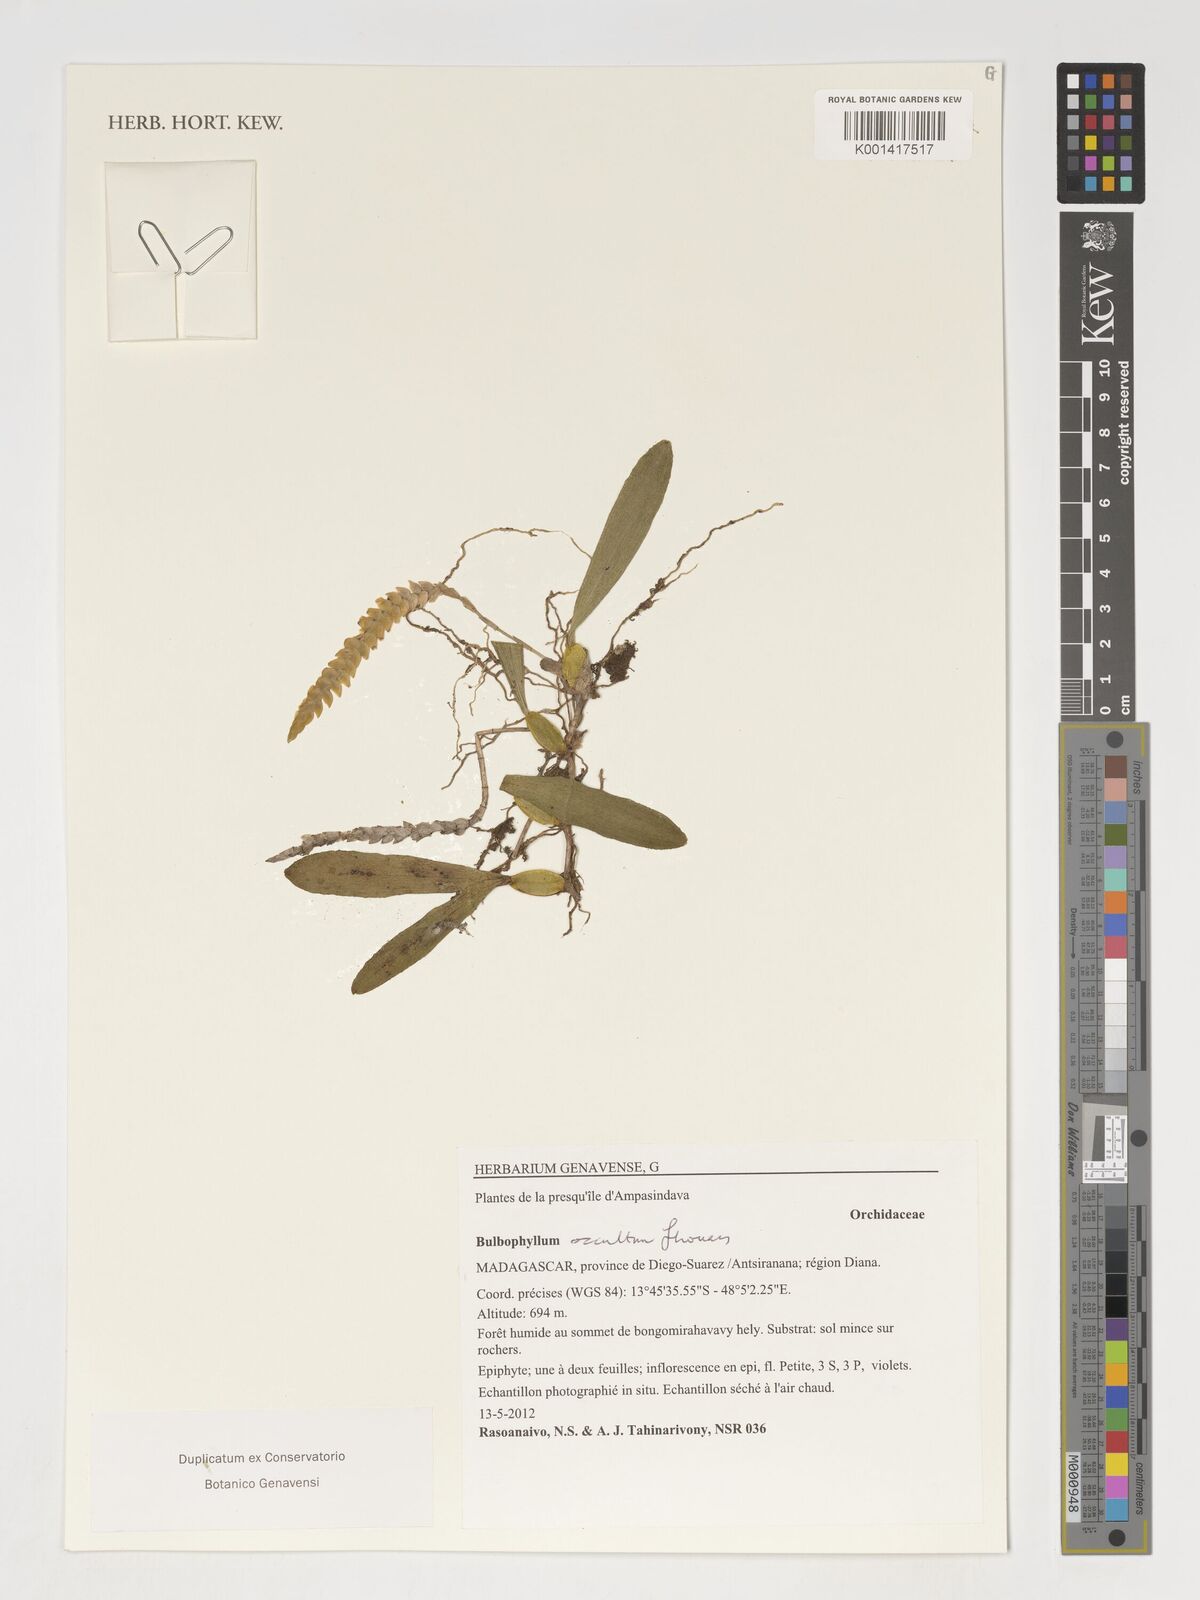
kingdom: Plantae
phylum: Tracheophyta
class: Liliopsida
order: Asparagales
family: Orchidaceae
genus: Bulbophyllum
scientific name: Bulbophyllum occultum
